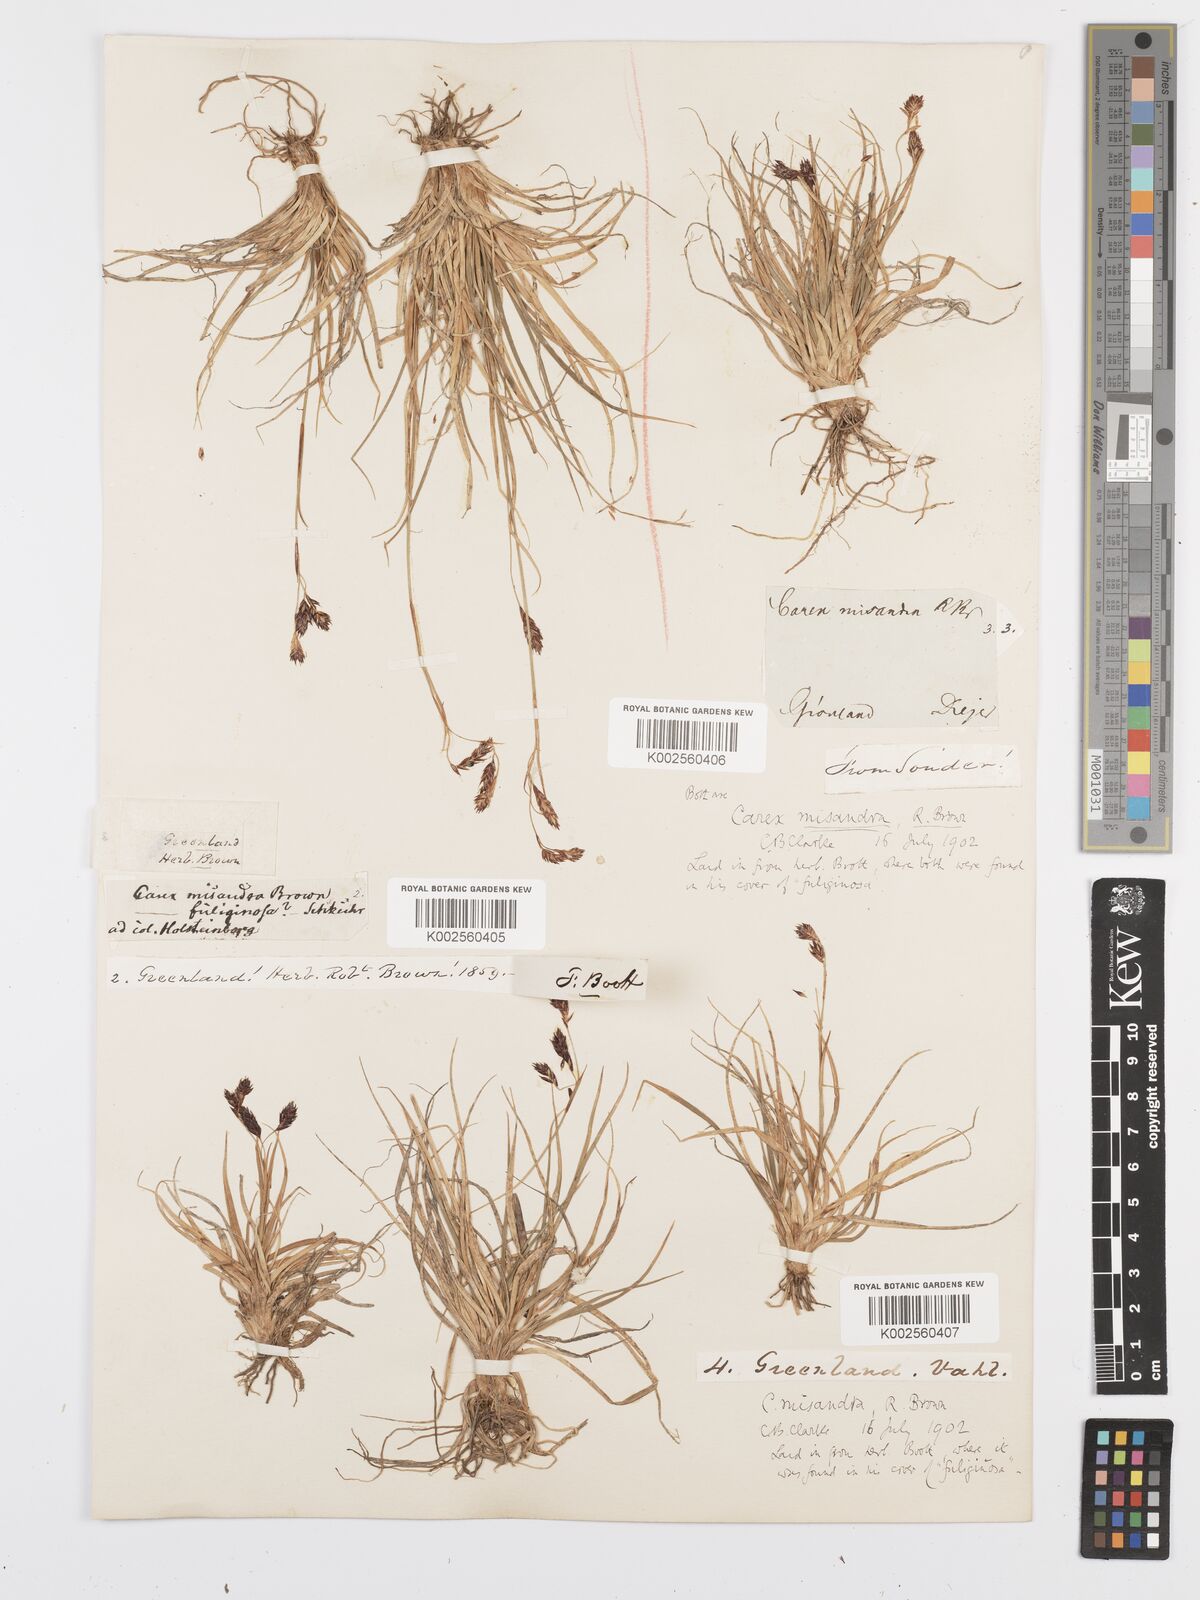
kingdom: Plantae
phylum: Tracheophyta
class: Liliopsida
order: Poales
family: Cyperaceae
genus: Carex
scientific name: Carex fuliginosa
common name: Few-flowered sedge
